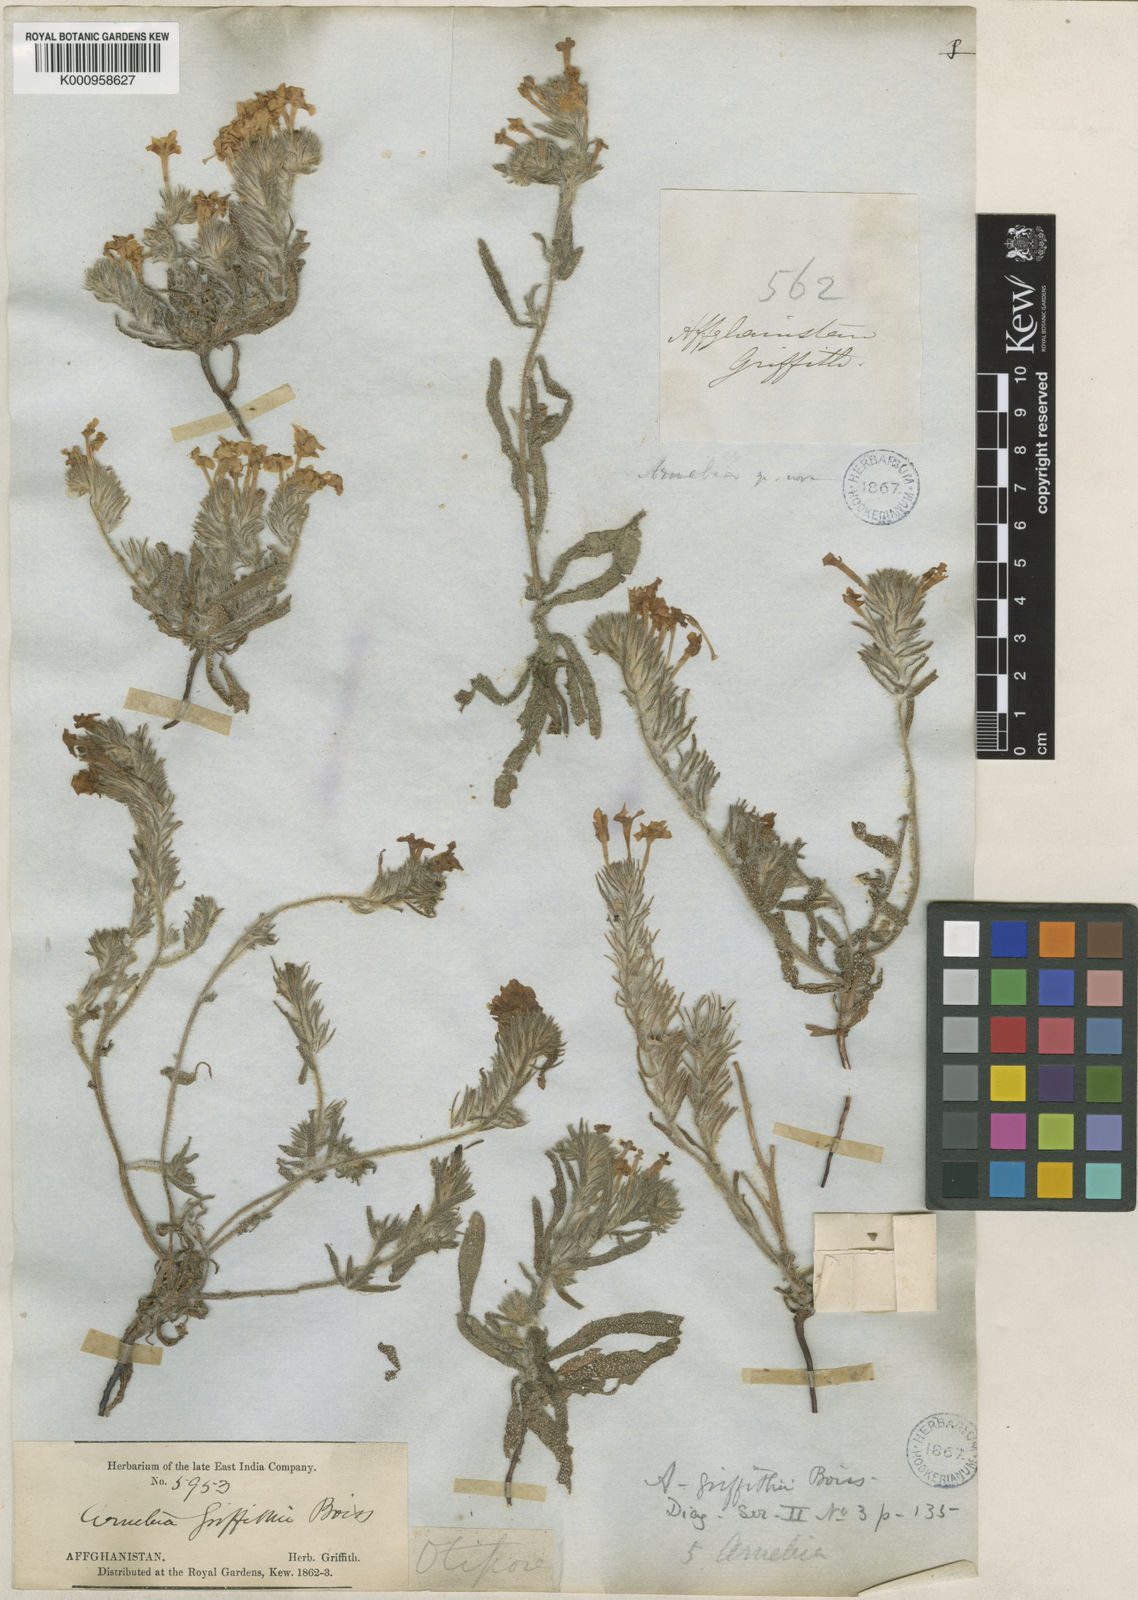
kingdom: Plantae
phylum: Tracheophyta
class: Magnoliopsida
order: Boraginales
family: Boraginaceae
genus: Arnebia
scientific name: Arnebia guttata
